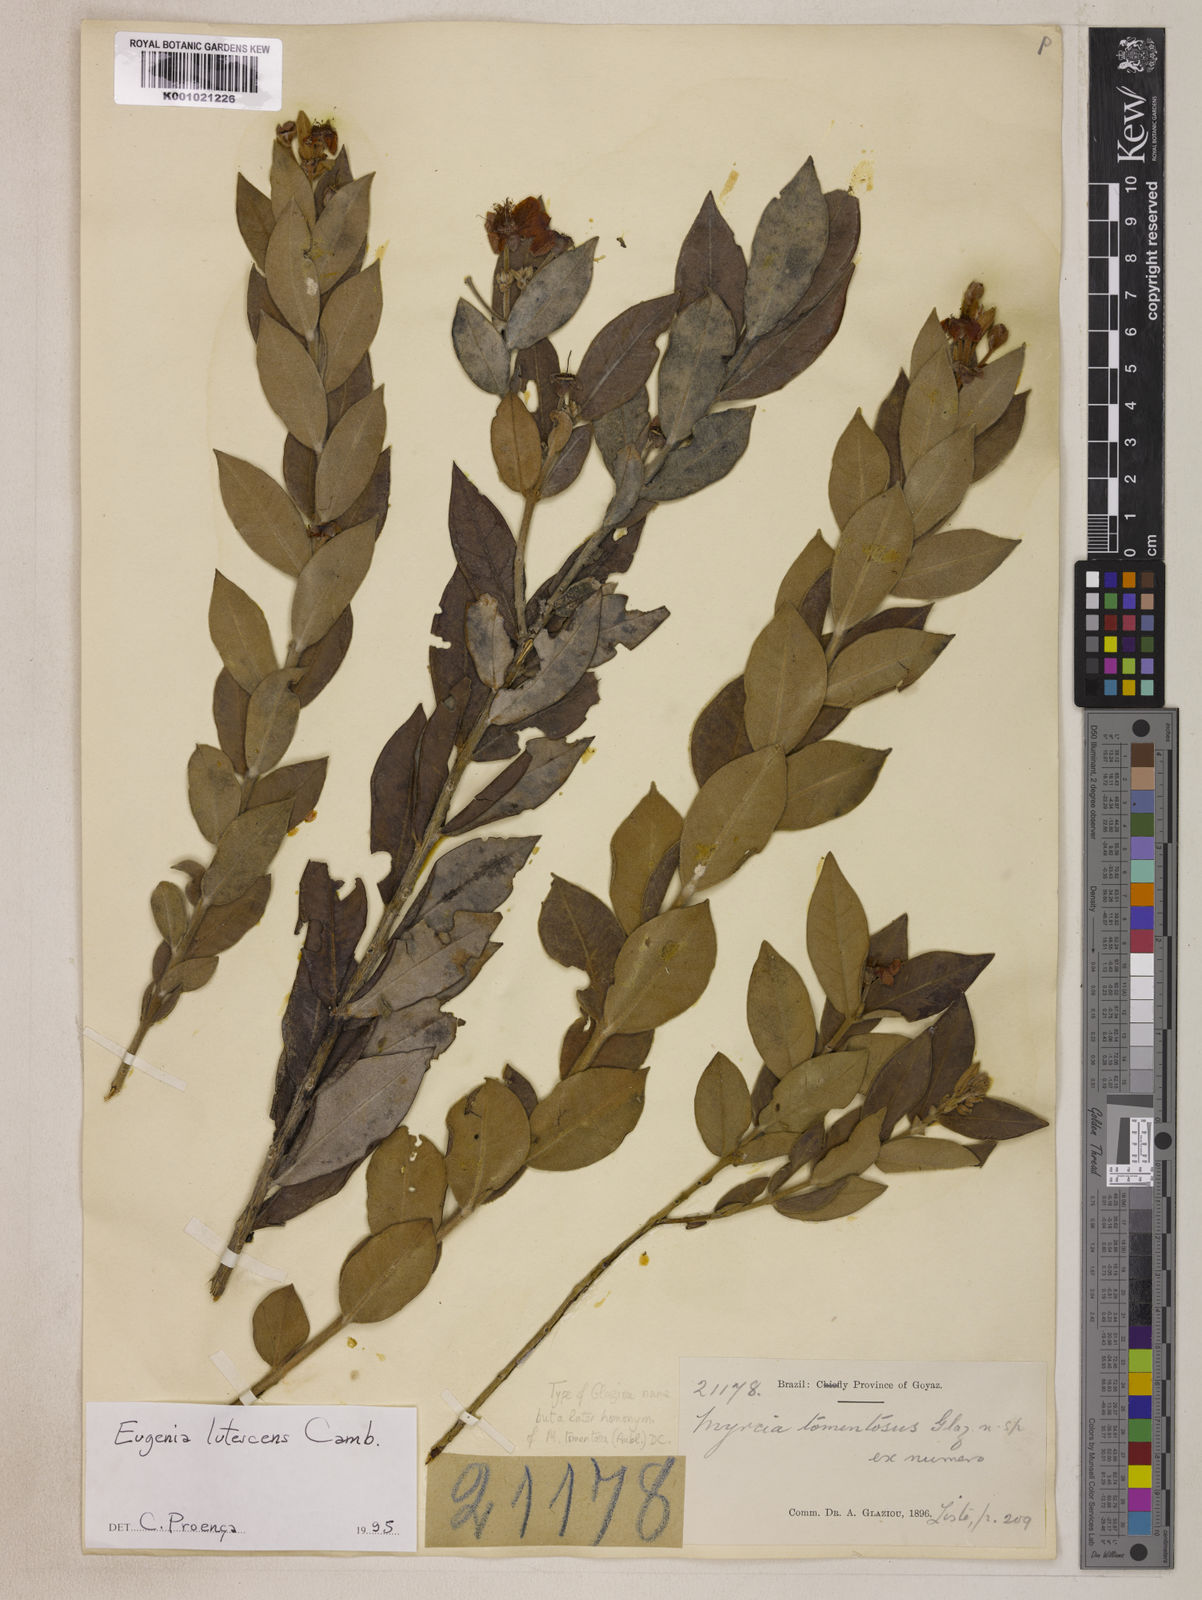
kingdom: Plantae
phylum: Tracheophyta
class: Magnoliopsida
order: Myrtales
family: Myrtaceae
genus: Eugenia
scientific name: Eugenia lutescens
